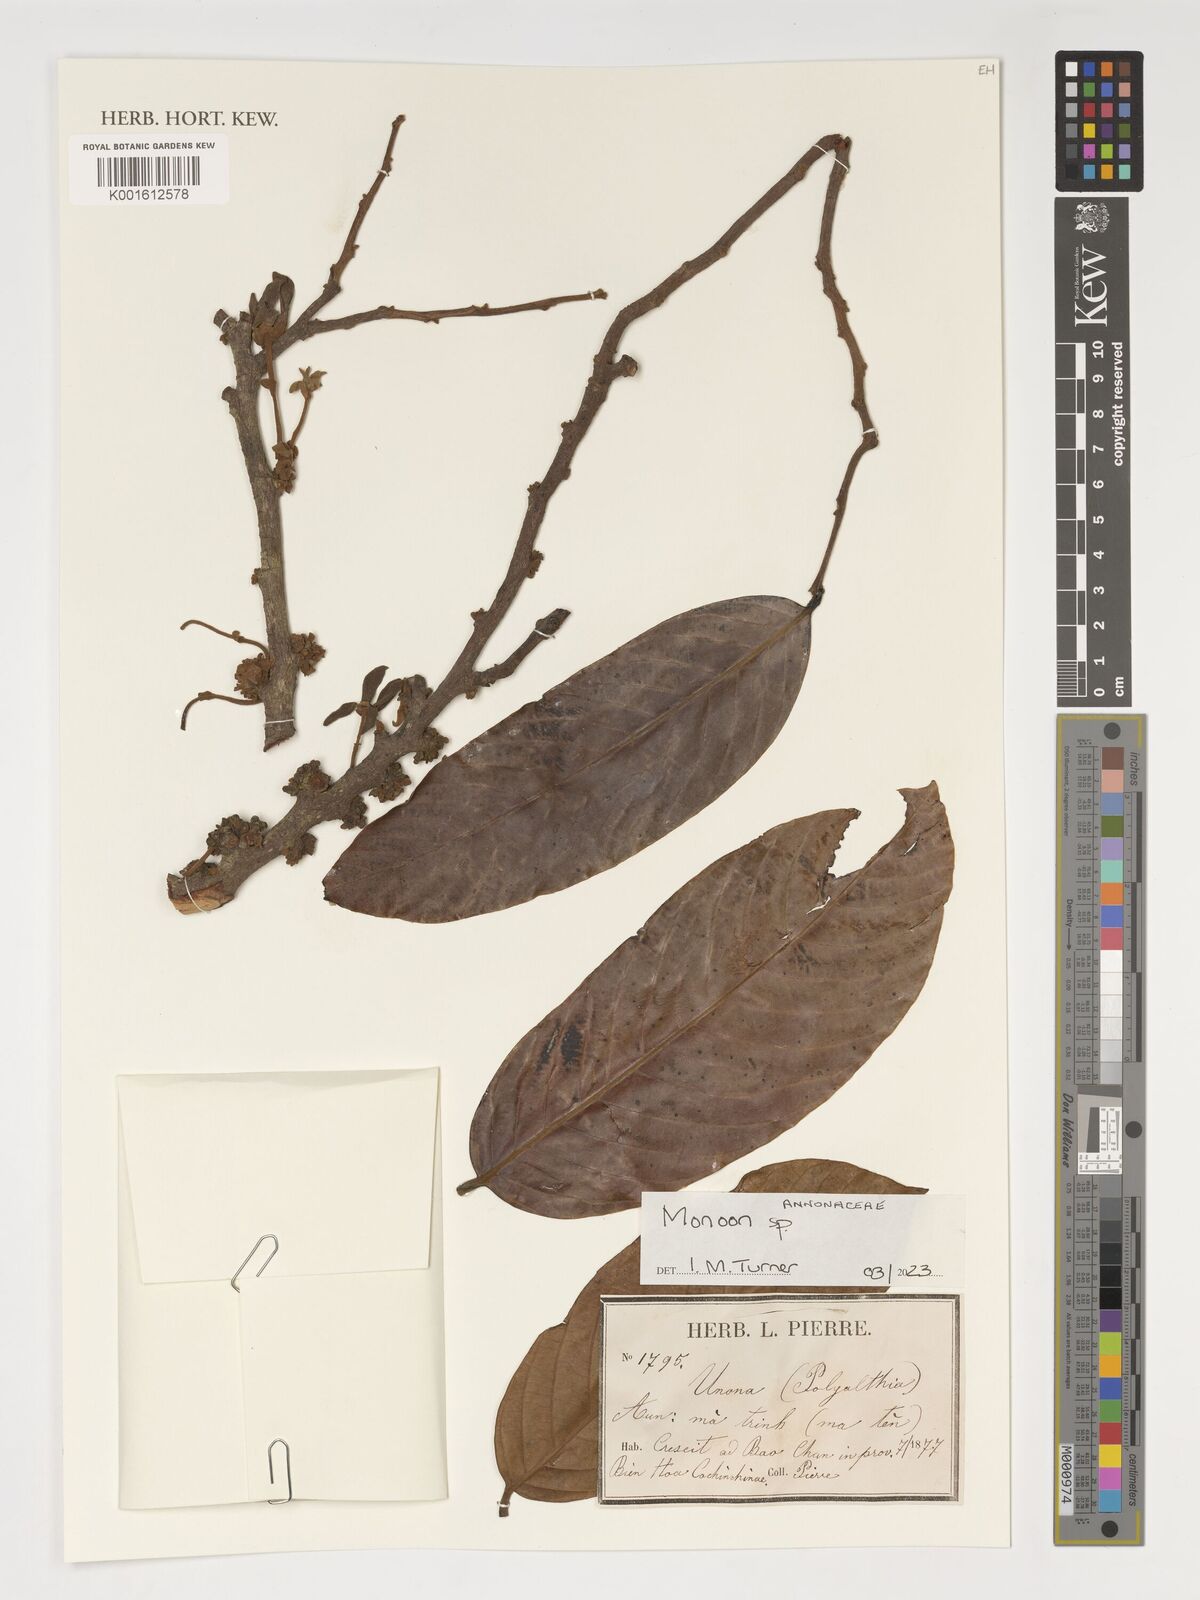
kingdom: Plantae
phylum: Tracheophyta
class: Magnoliopsida
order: Magnoliales
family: Annonaceae
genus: Monoon
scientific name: Monoon
